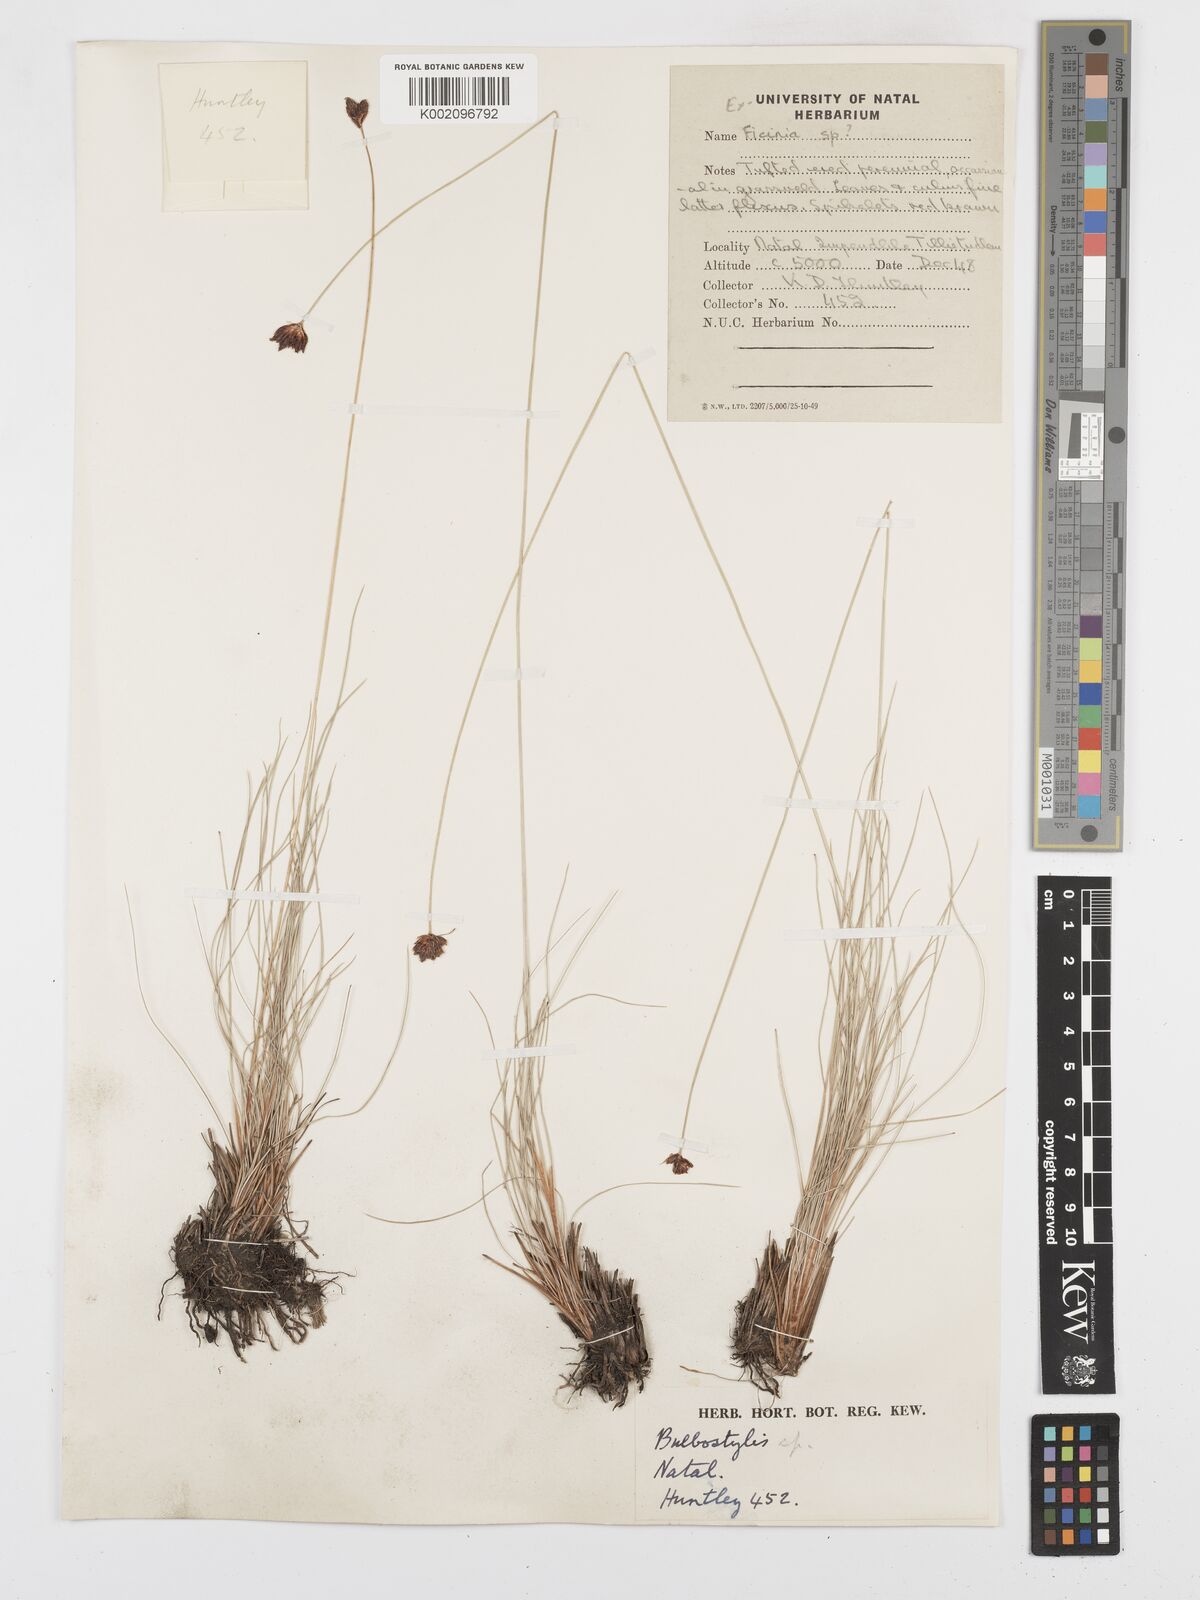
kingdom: Plantae
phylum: Tracheophyta
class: Liliopsida
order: Poales
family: Cyperaceae
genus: Bulbostylis
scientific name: Bulbostylis
